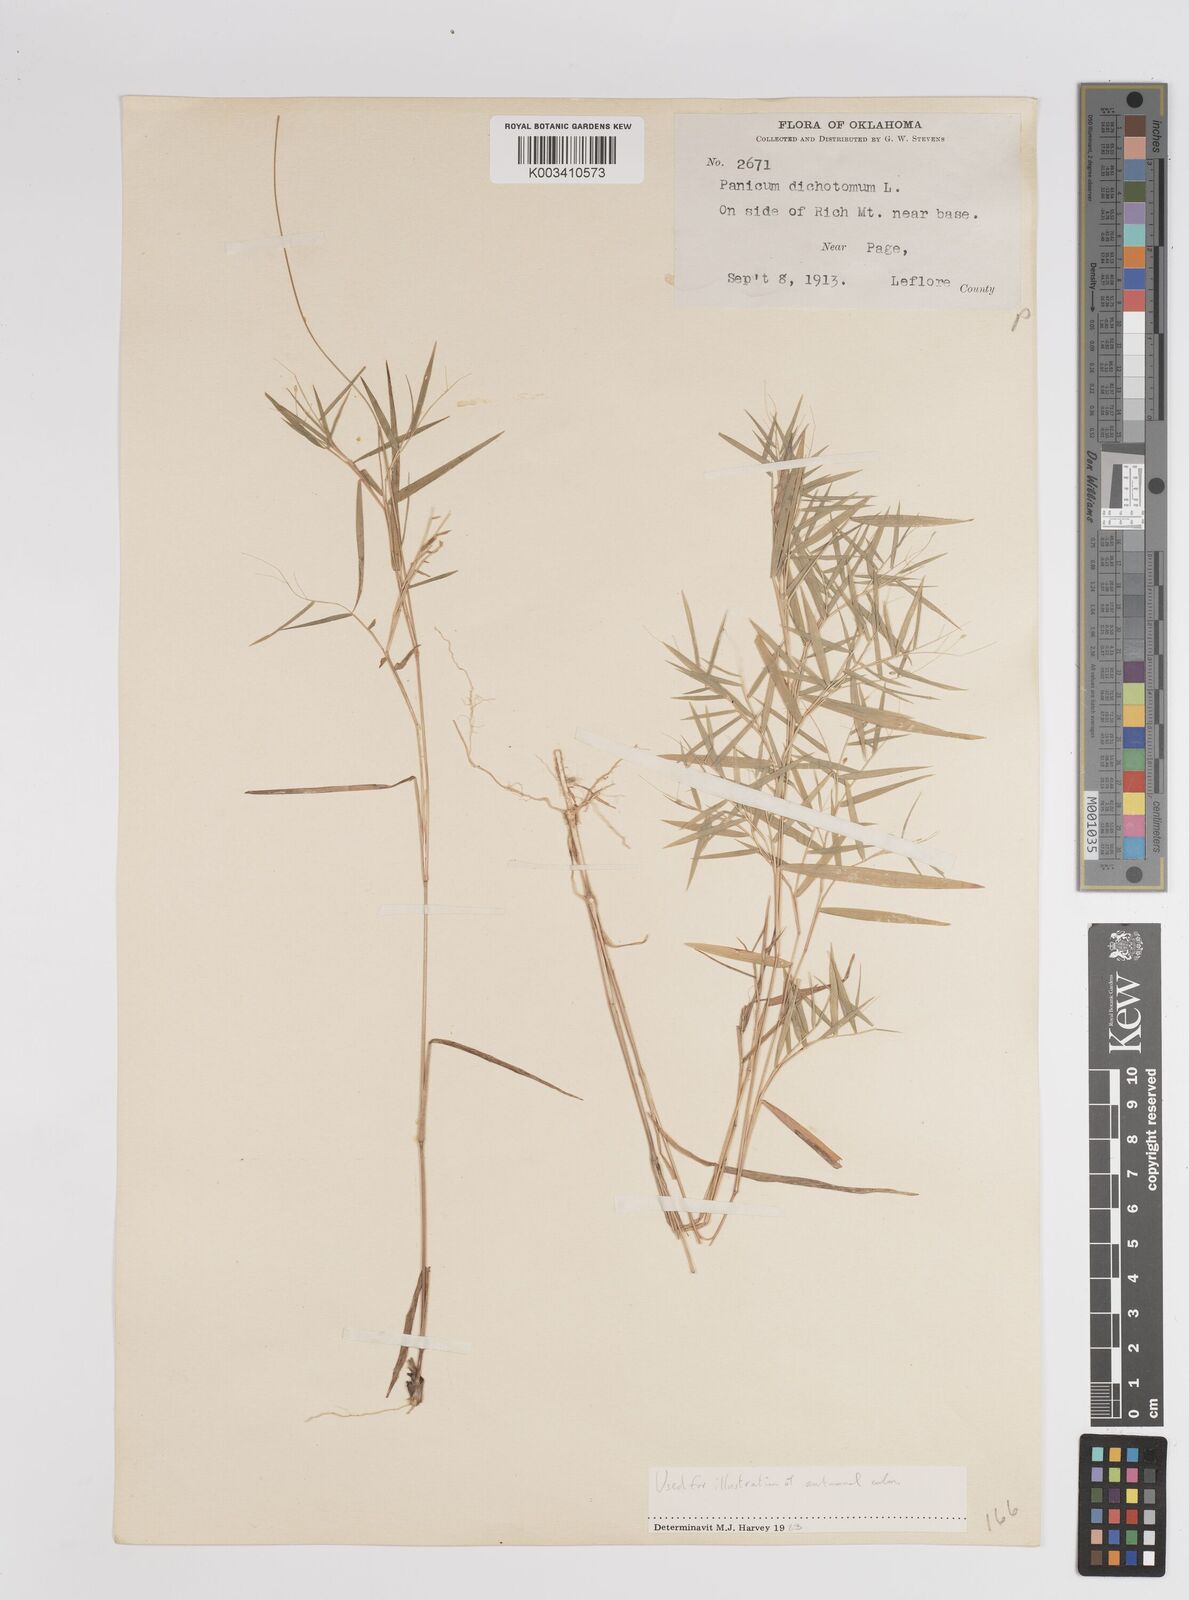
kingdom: Plantae
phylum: Tracheophyta
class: Liliopsida
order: Poales
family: Poaceae
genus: Dichanthelium
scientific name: Dichanthelium dichotomum
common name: Cypress panicgrass
